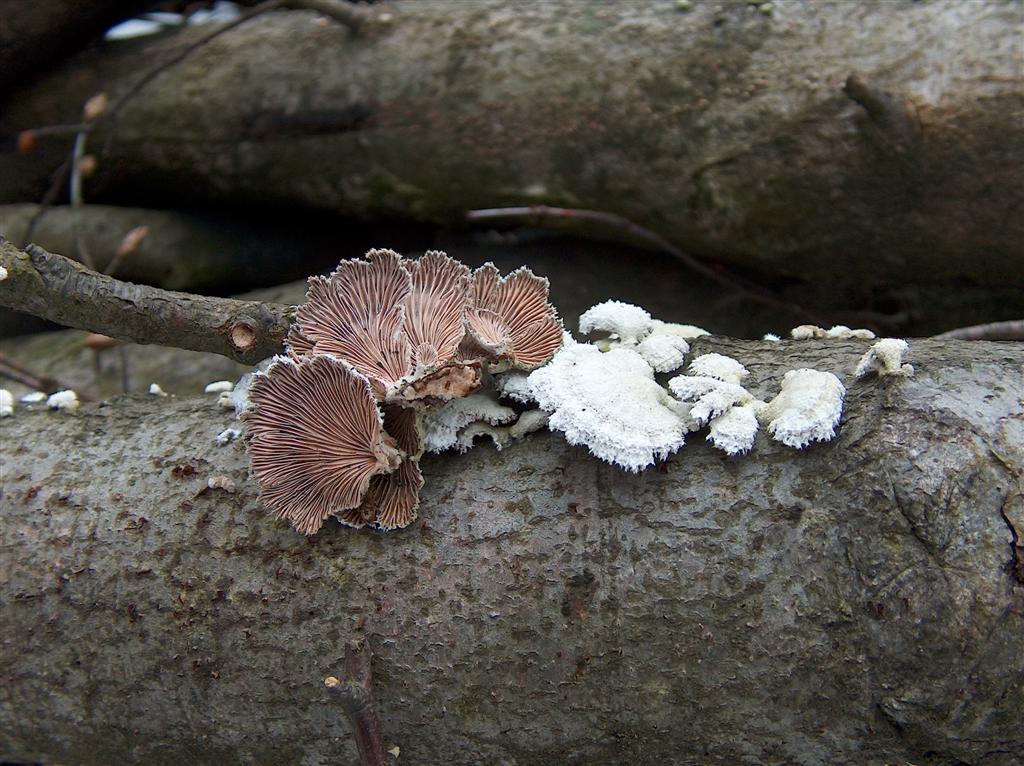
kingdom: Fungi
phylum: Basidiomycota
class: Agaricomycetes
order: Agaricales
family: Schizophyllaceae
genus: Schizophyllum
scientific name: Schizophyllum commune
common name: kløvblad
